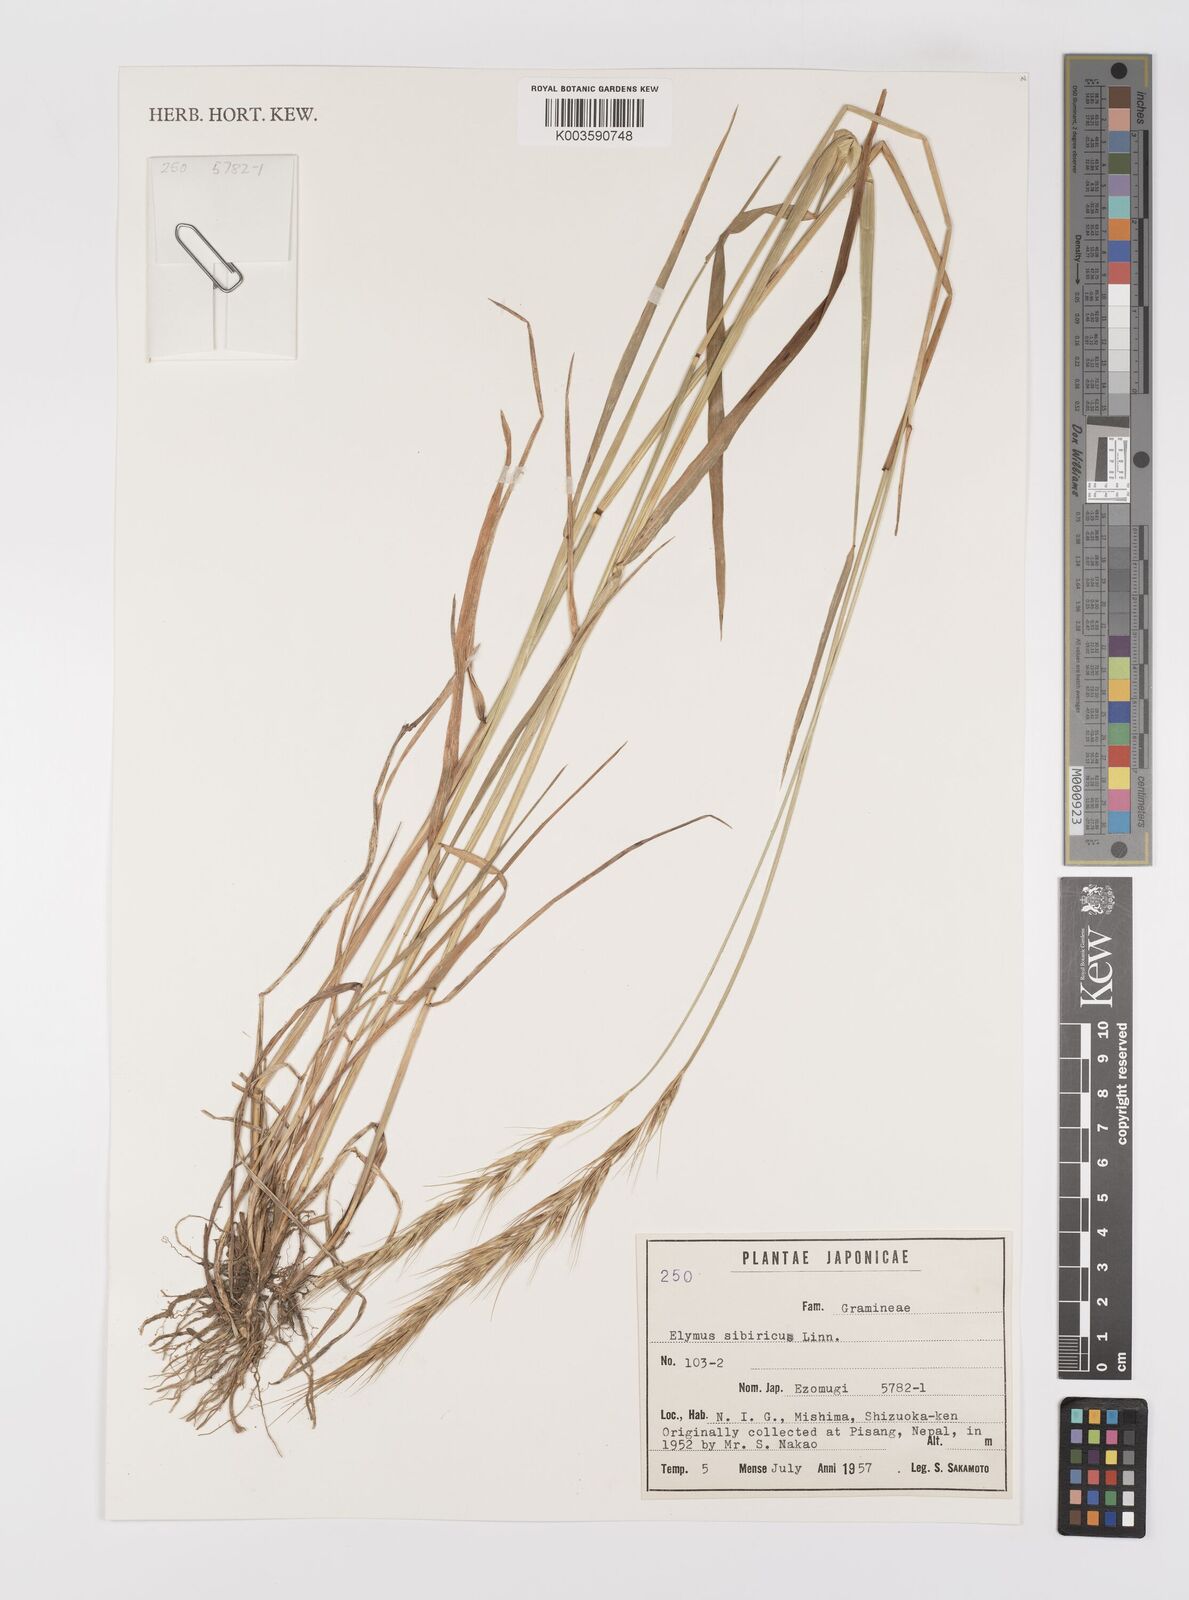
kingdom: Plantae
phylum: Tracheophyta
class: Liliopsida
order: Poales
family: Poaceae
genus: Elymus
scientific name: Elymus sibiricus
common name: Siberian wildrye
